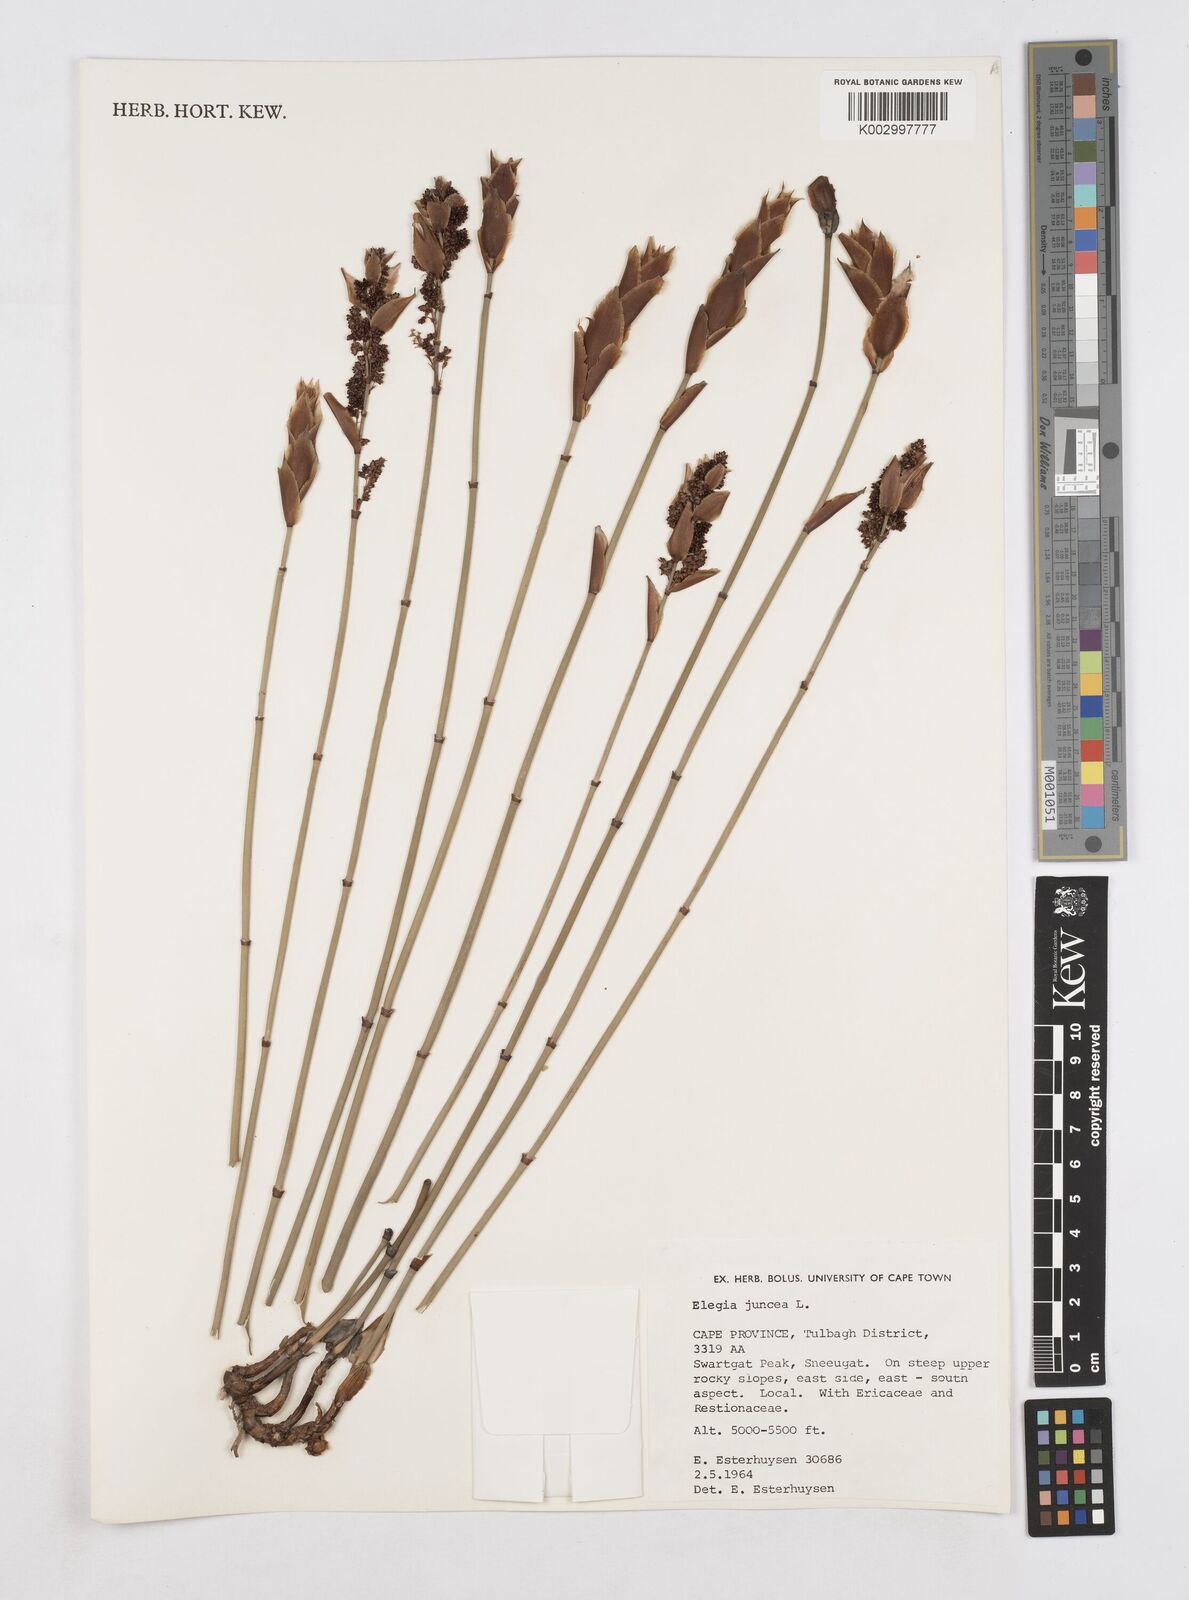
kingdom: Plantae
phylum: Tracheophyta
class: Liliopsida
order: Poales
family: Restionaceae
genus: Elegia
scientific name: Elegia juncea
